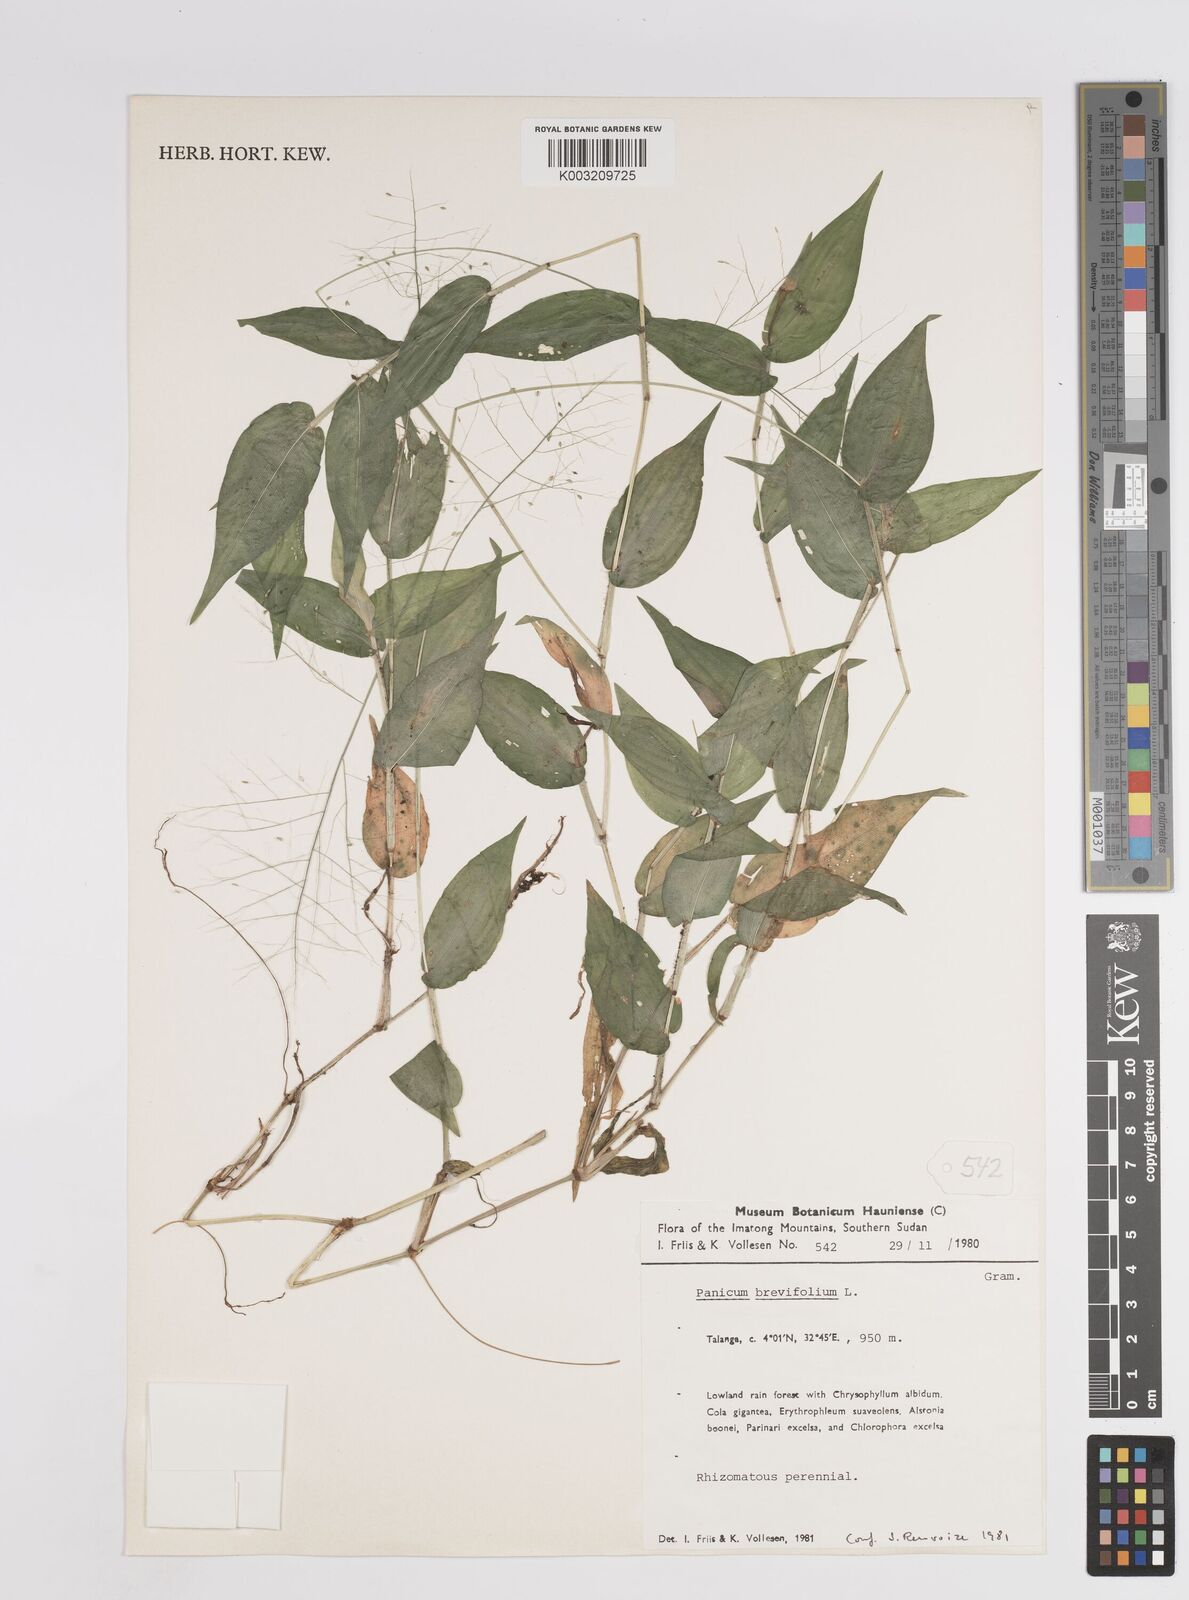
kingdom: Plantae
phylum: Tracheophyta
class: Liliopsida
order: Poales
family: Poaceae
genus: Panicum
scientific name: Panicum
